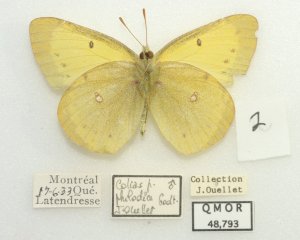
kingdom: Animalia
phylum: Arthropoda
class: Insecta
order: Lepidoptera
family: Pieridae
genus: Colias
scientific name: Colias philodice
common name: Clouded Sulphur
